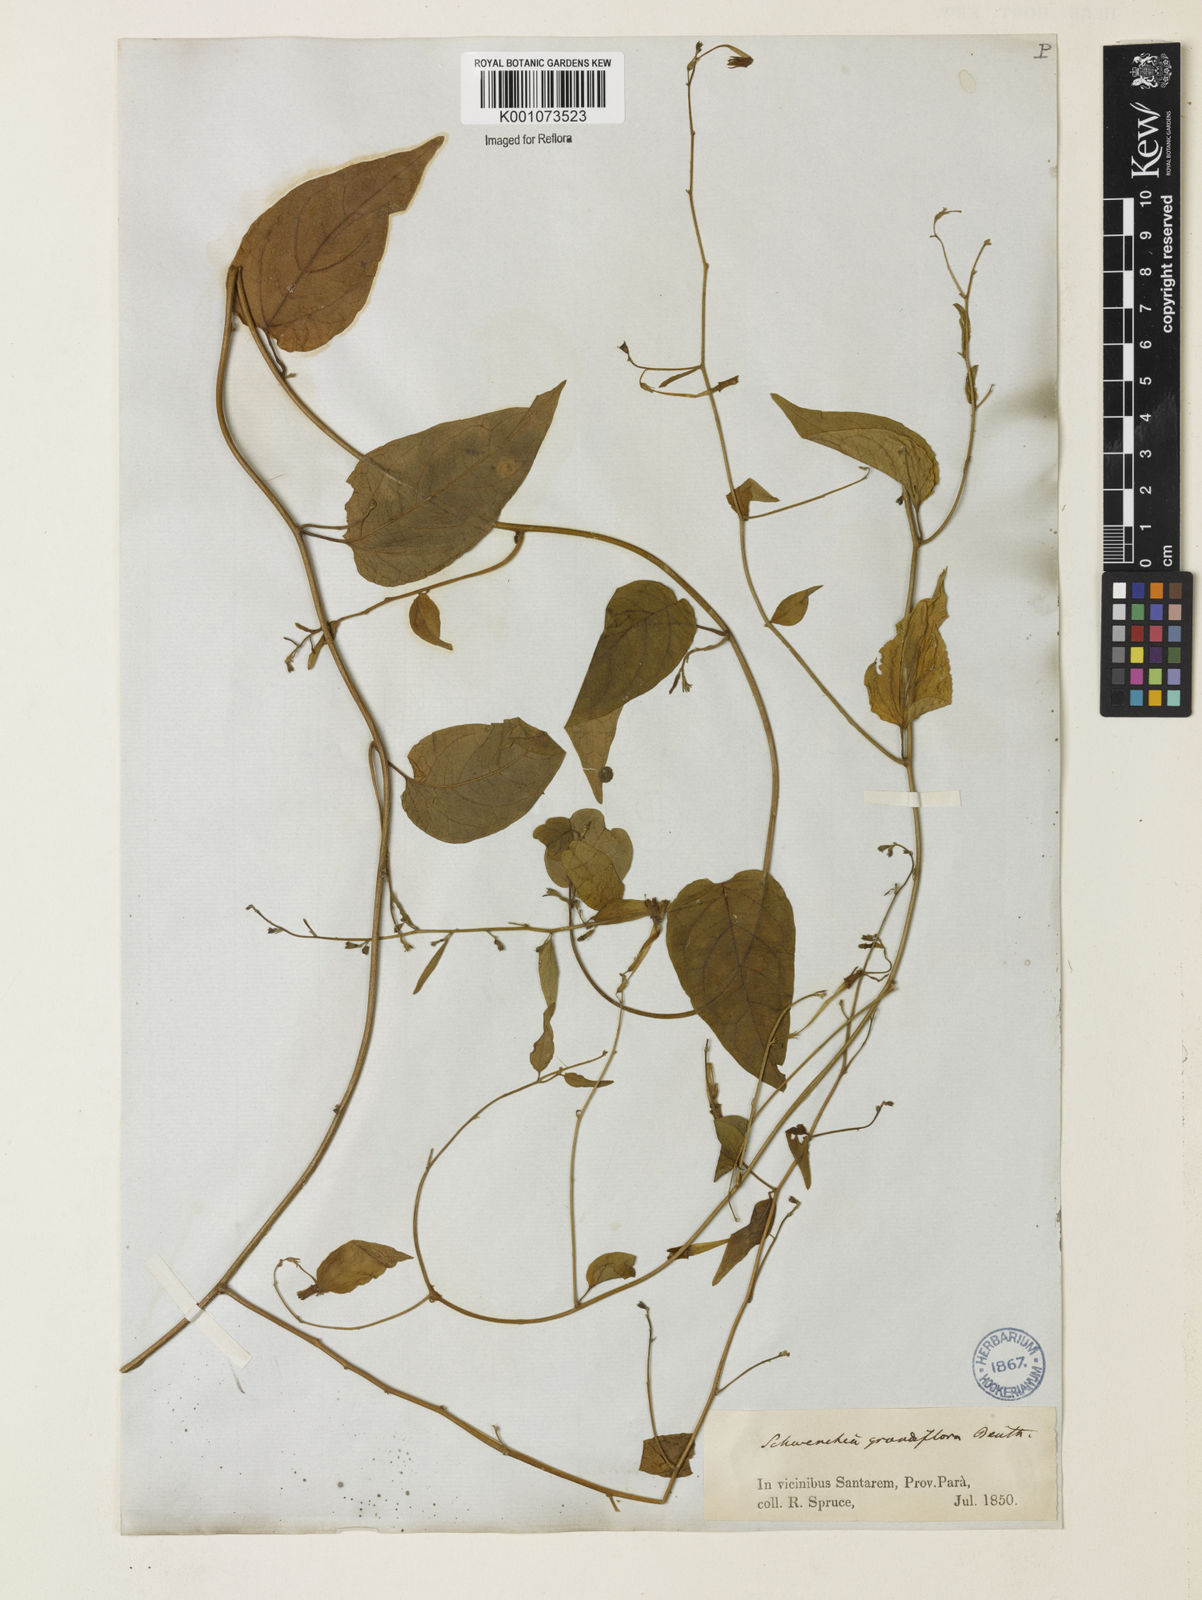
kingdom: Plantae
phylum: Tracheophyta
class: Magnoliopsida
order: Solanales
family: Solanaceae
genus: Schwenckia
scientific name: Schwenckia grandiflora
